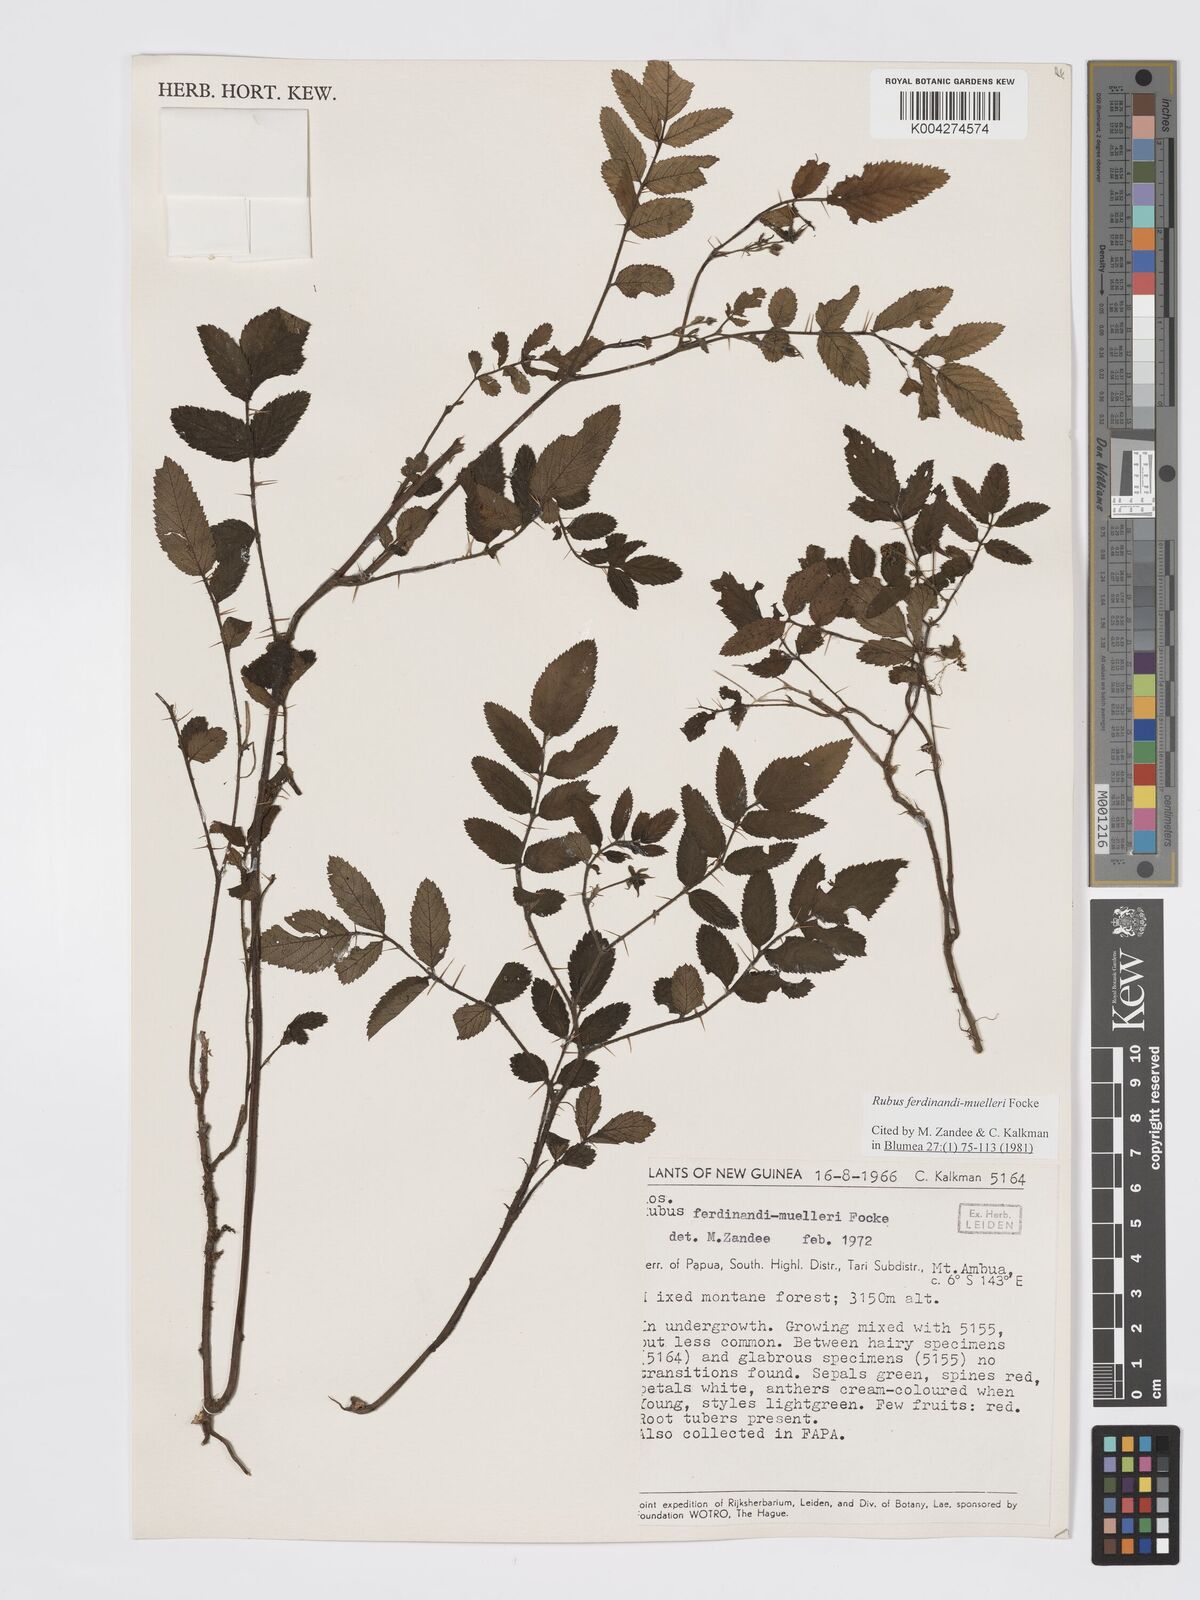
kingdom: Plantae
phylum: Tracheophyta
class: Magnoliopsida
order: Rosales
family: Rosaceae
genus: Rubus
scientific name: Rubus ferdinandimuelleri
